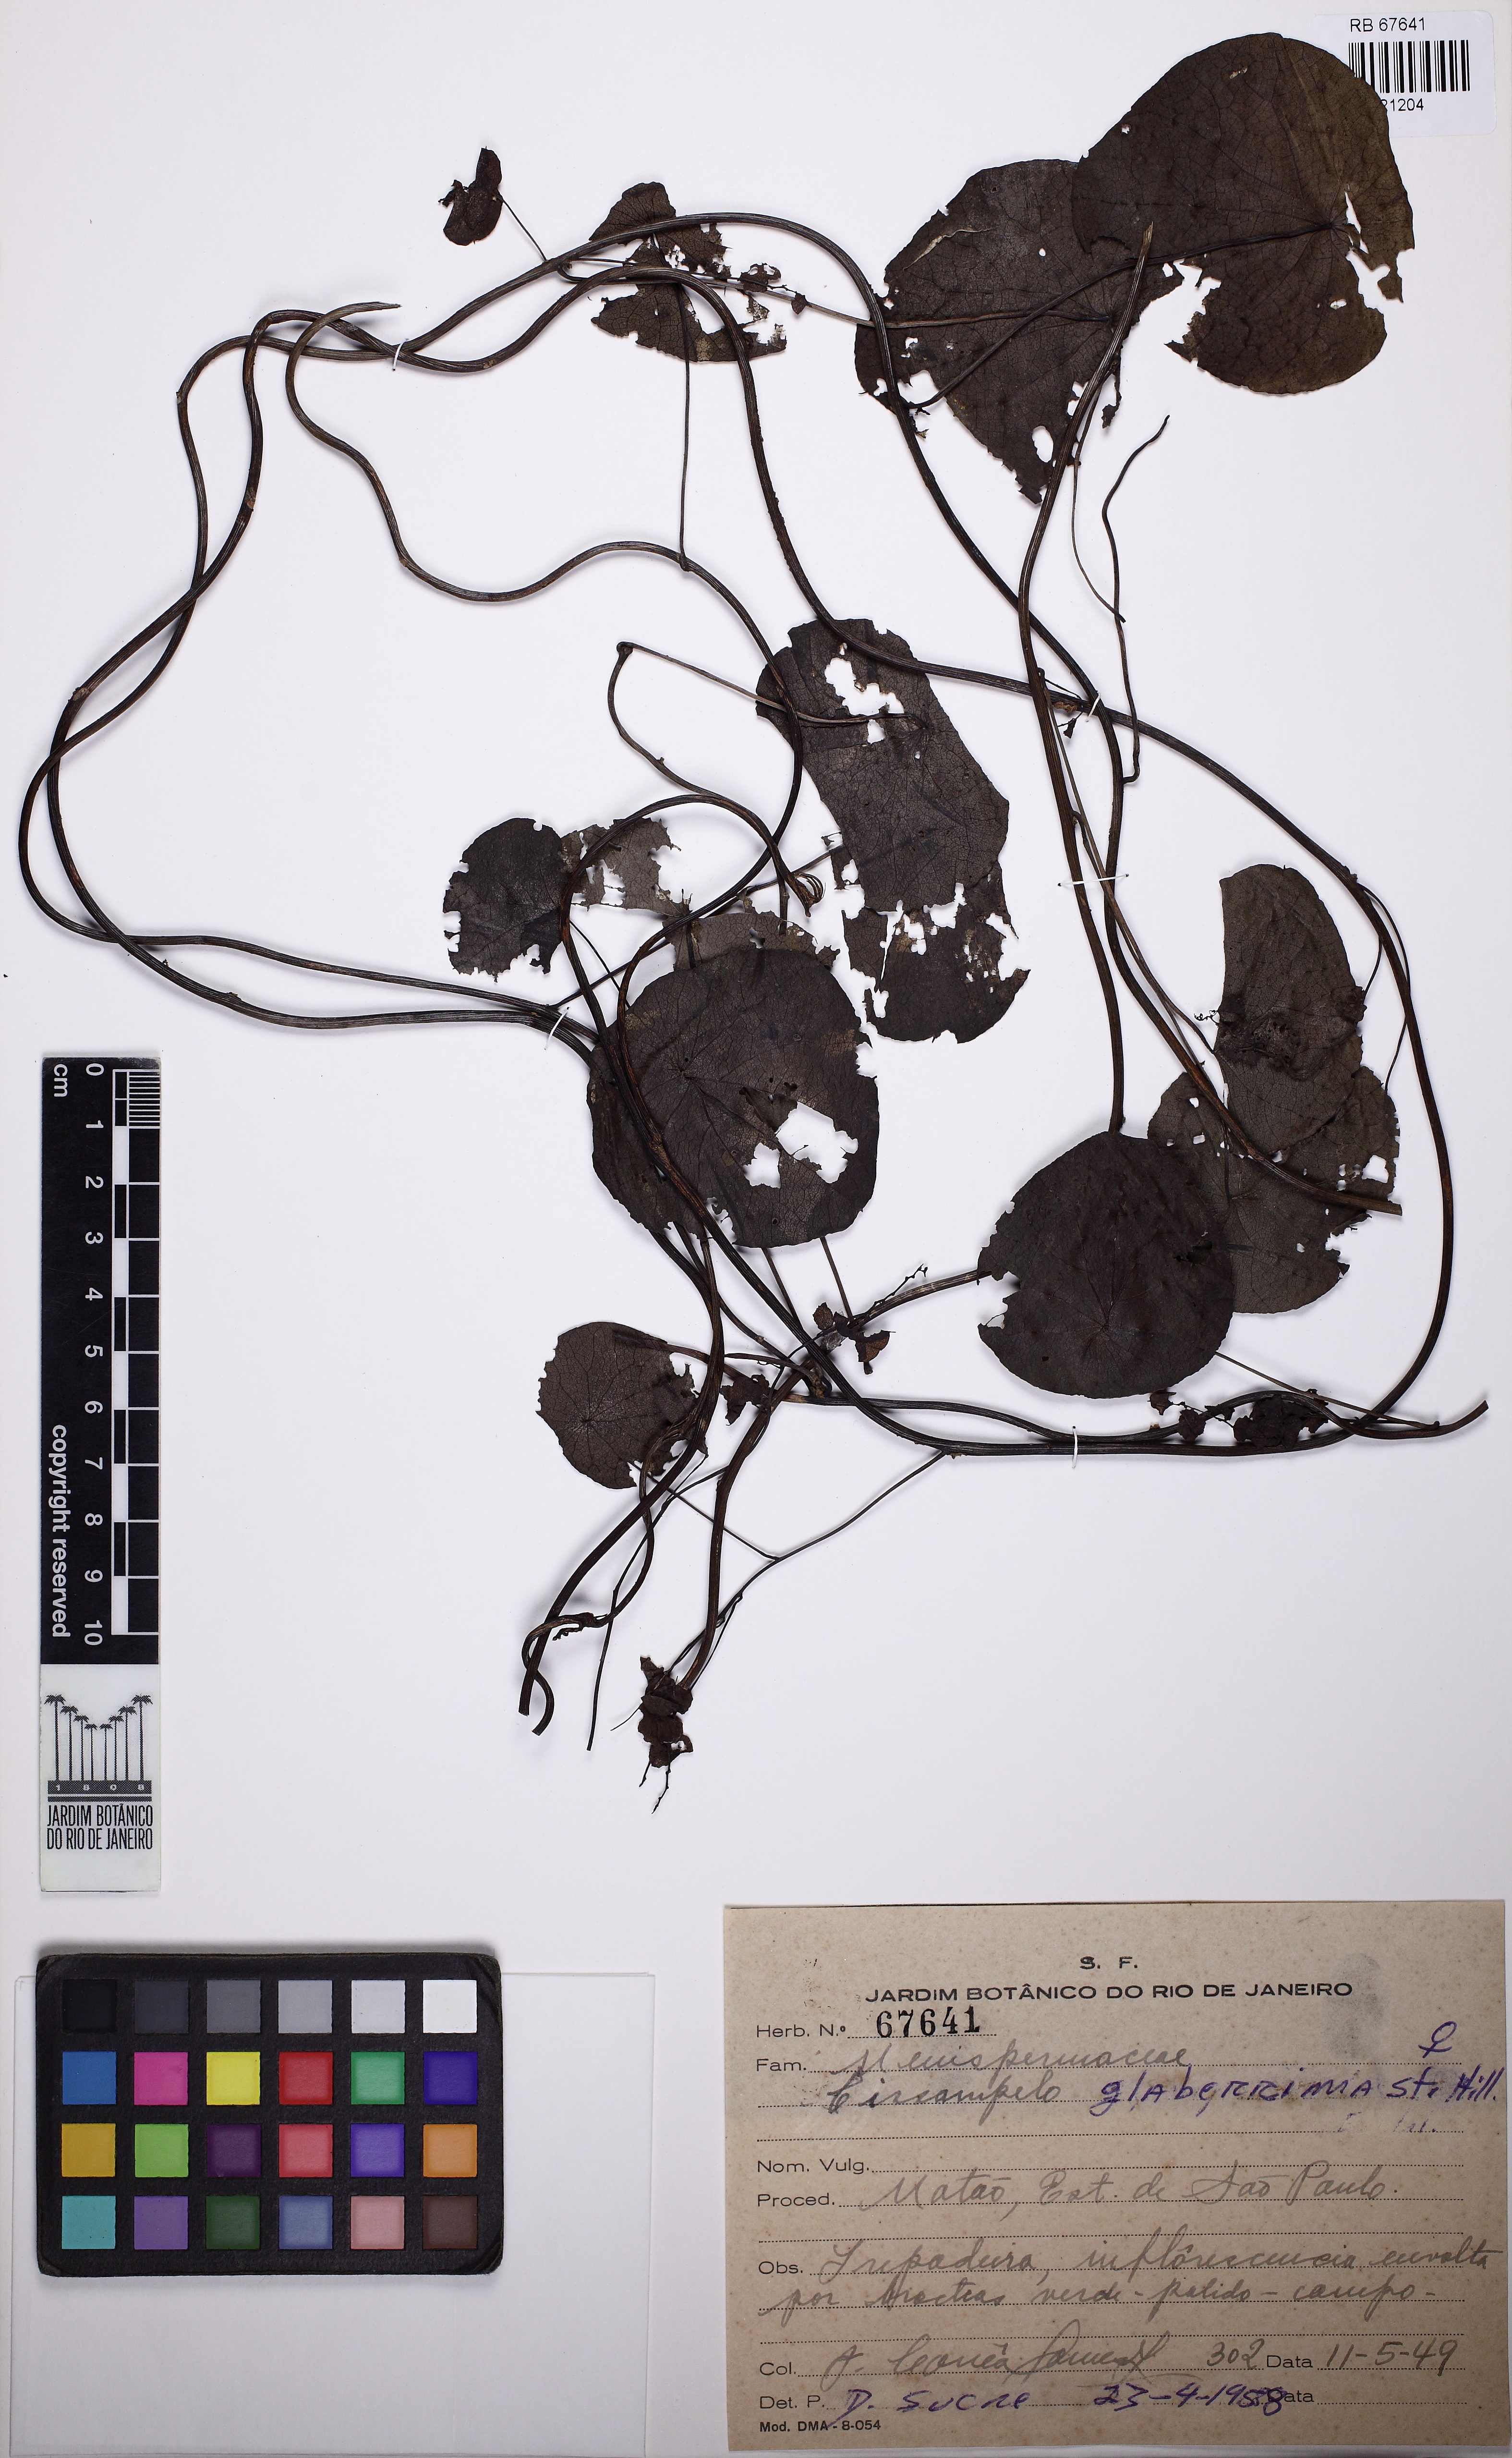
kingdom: Plantae
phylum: Tracheophyta
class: Magnoliopsida
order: Ranunculales
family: Menispermaceae
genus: Cissampelos
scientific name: Cissampelos glaberrima
